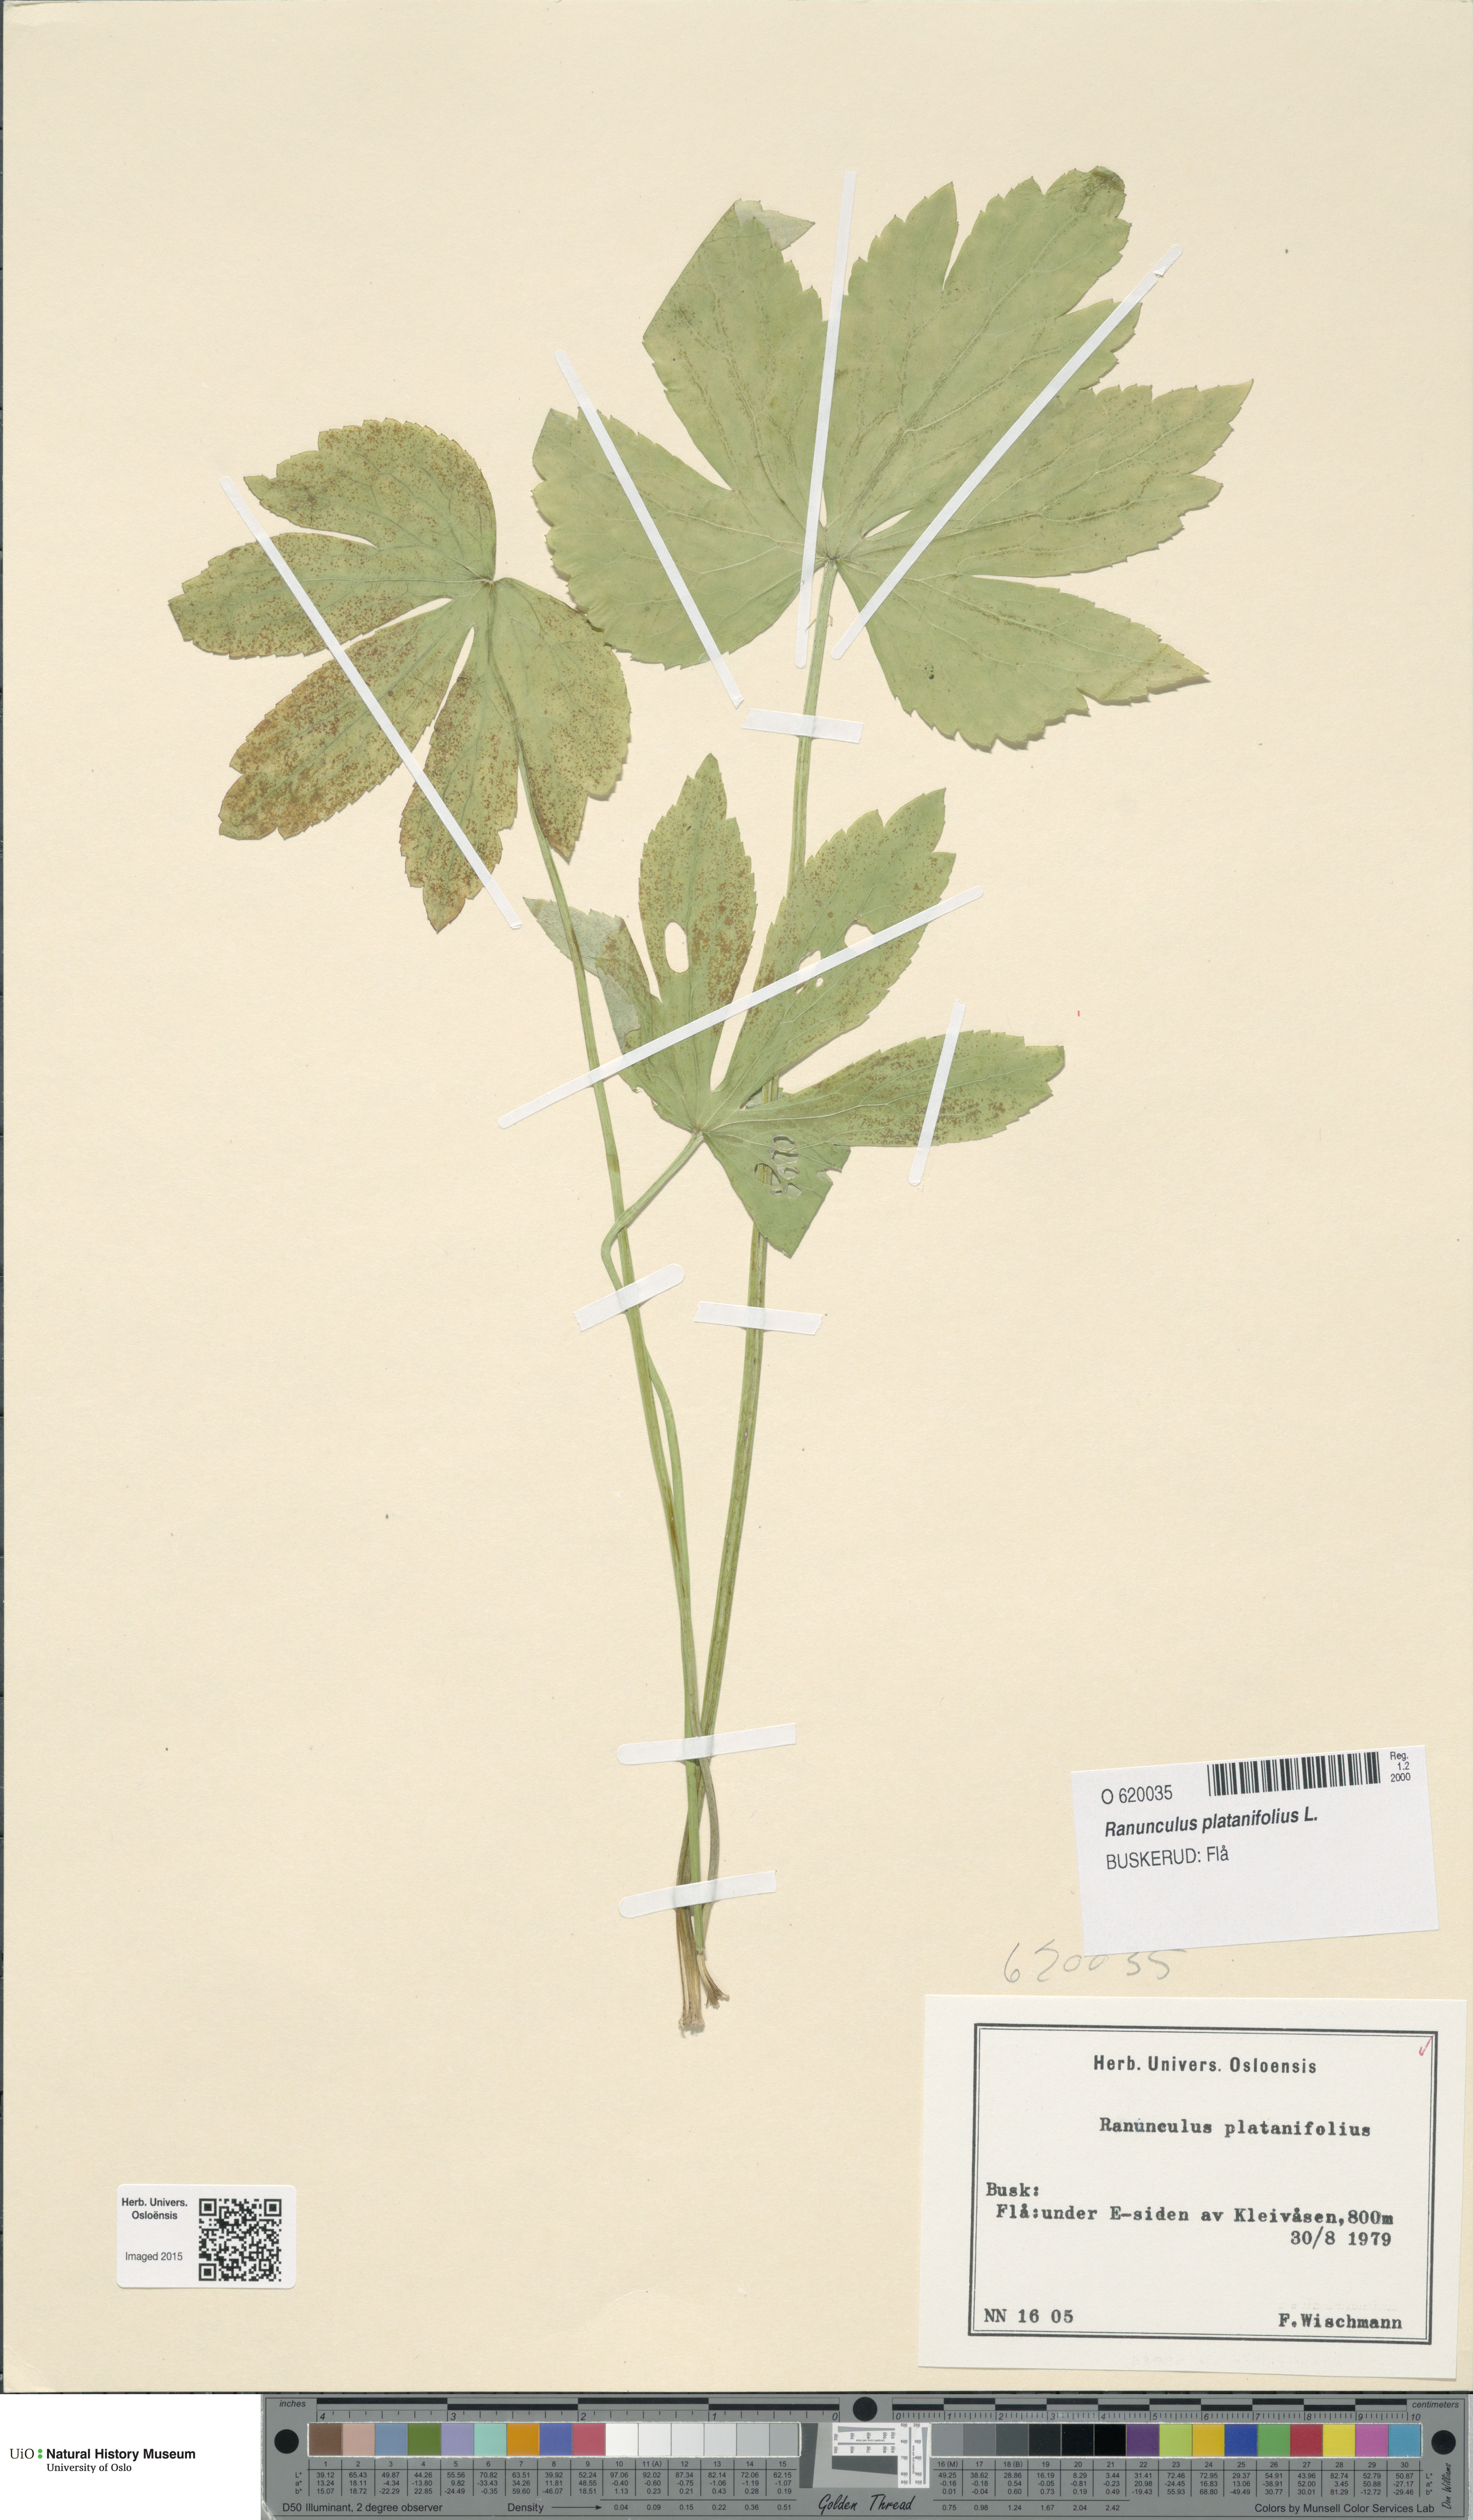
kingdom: Plantae
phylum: Tracheophyta
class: Magnoliopsida
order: Ranunculales
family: Ranunculaceae
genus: Ranunculus
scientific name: Ranunculus platanifolius
